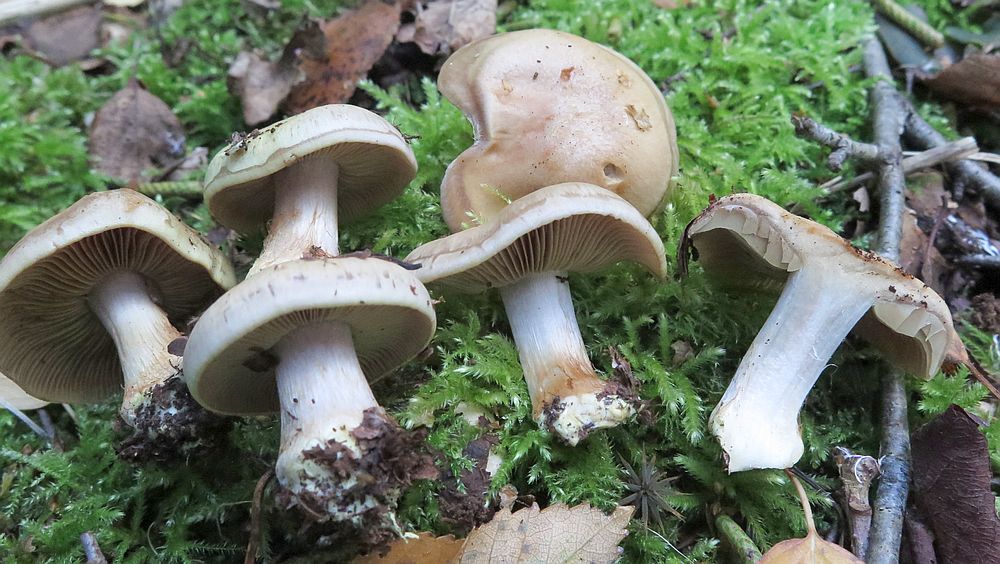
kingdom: Fungi
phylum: Basidiomycota
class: Agaricomycetes
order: Agaricales
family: Cortinariaceae
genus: Thaxterogaster
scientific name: Thaxterogaster scaurus
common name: grønrandet slørhat
